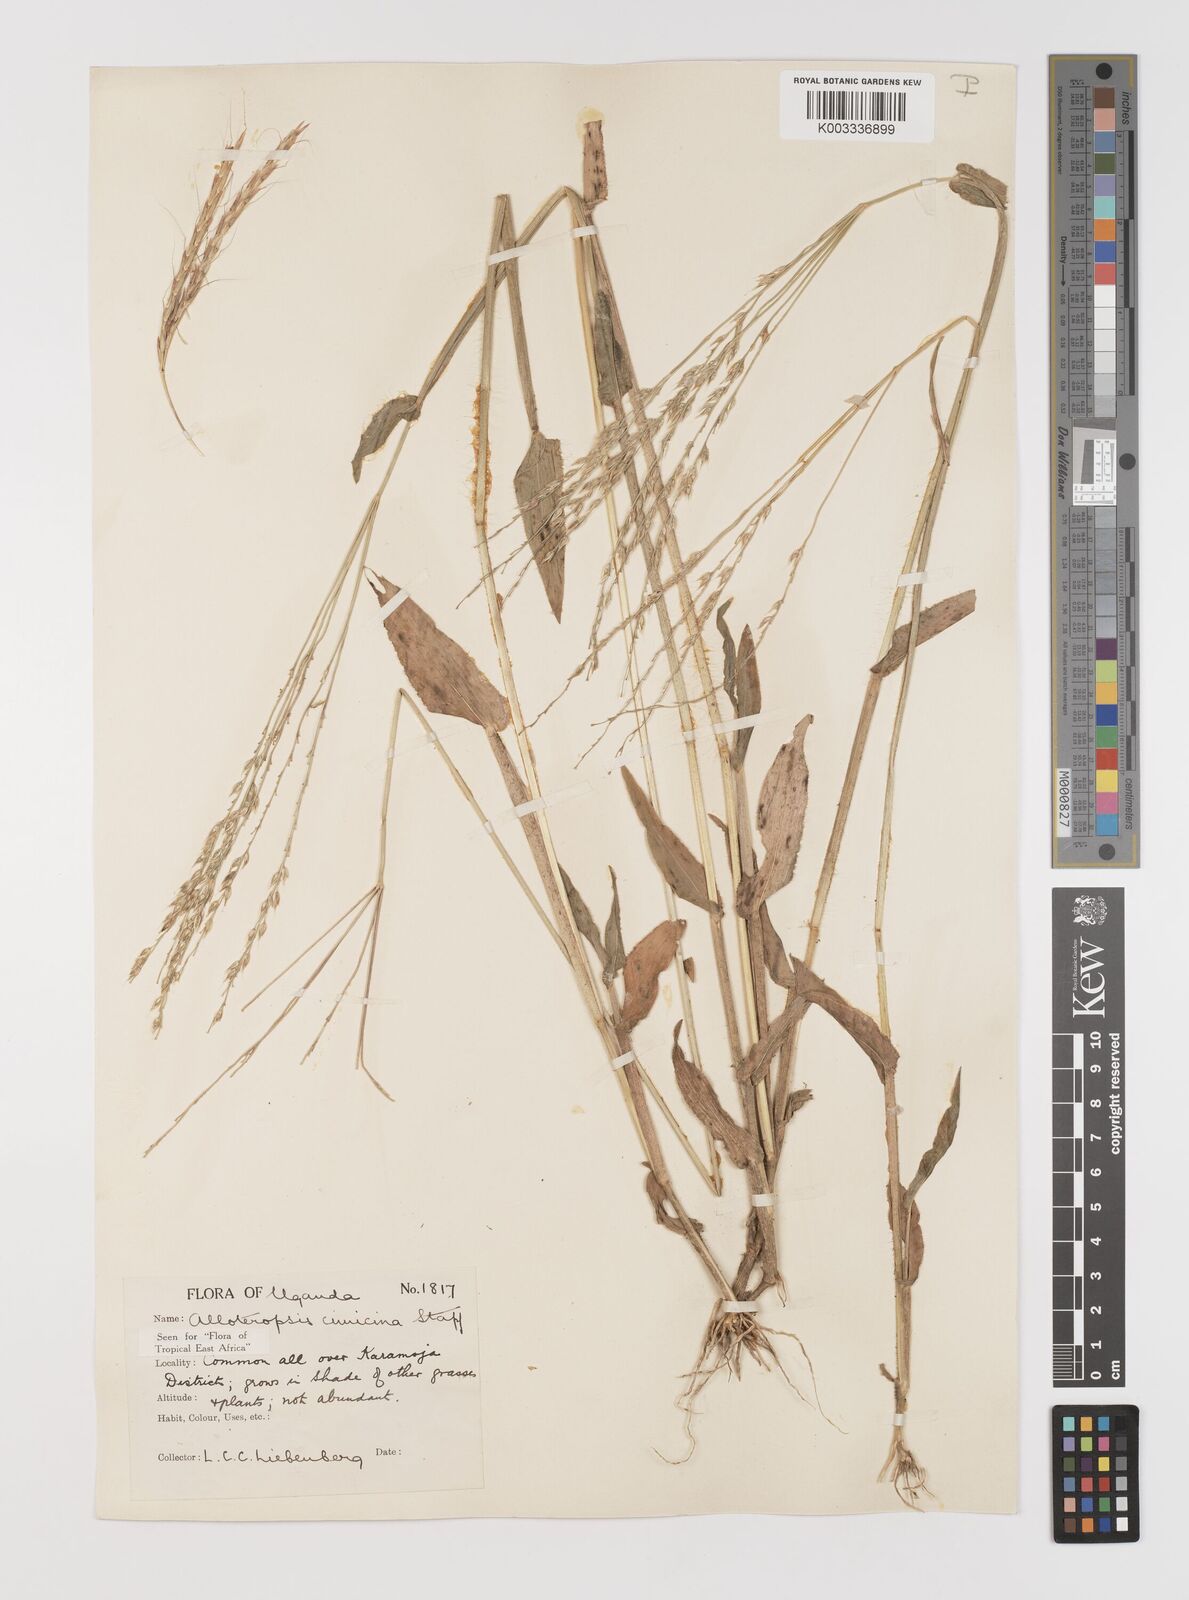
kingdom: Plantae
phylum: Tracheophyta
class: Liliopsida
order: Poales
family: Poaceae
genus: Alloteropsis
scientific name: Alloteropsis cimicina
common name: Summergrass
